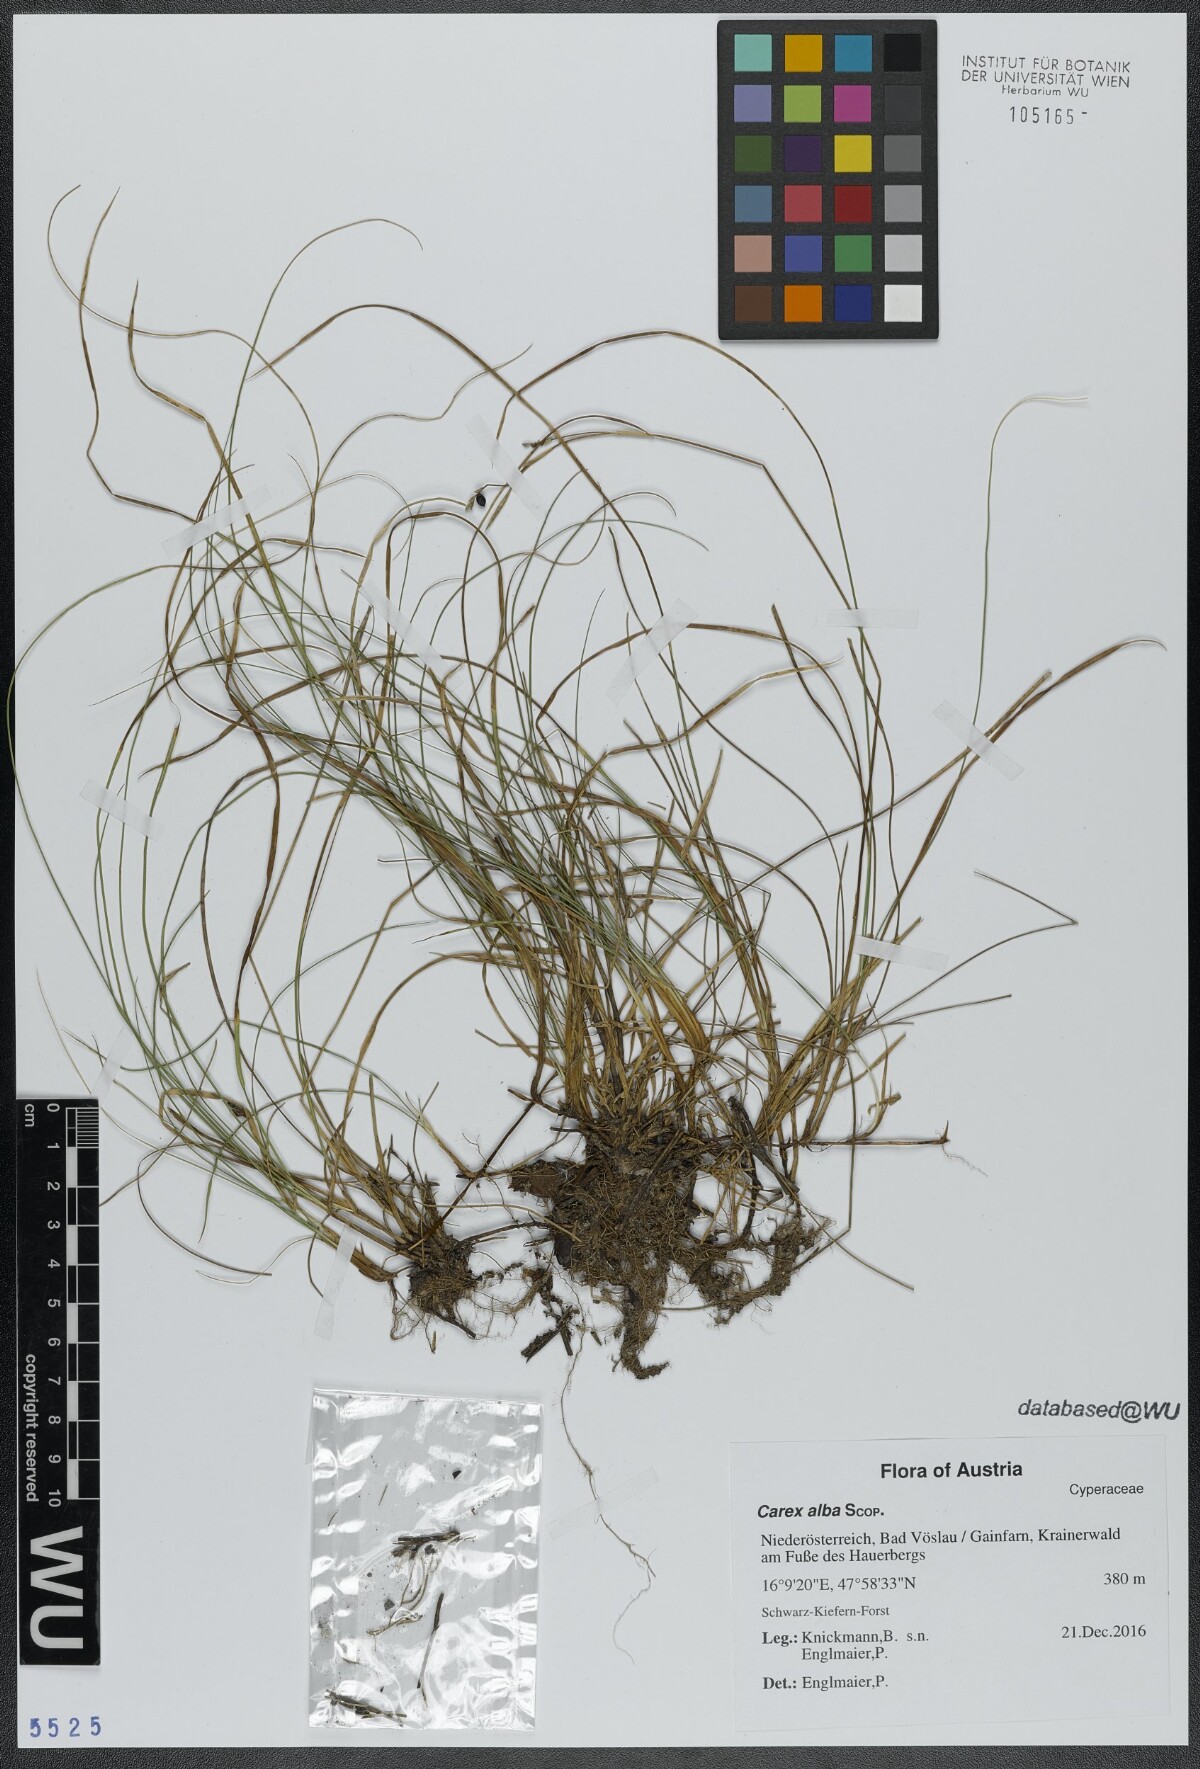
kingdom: Plantae
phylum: Tracheophyta
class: Liliopsida
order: Poales
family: Cyperaceae
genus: Carex
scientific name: Carex alba
